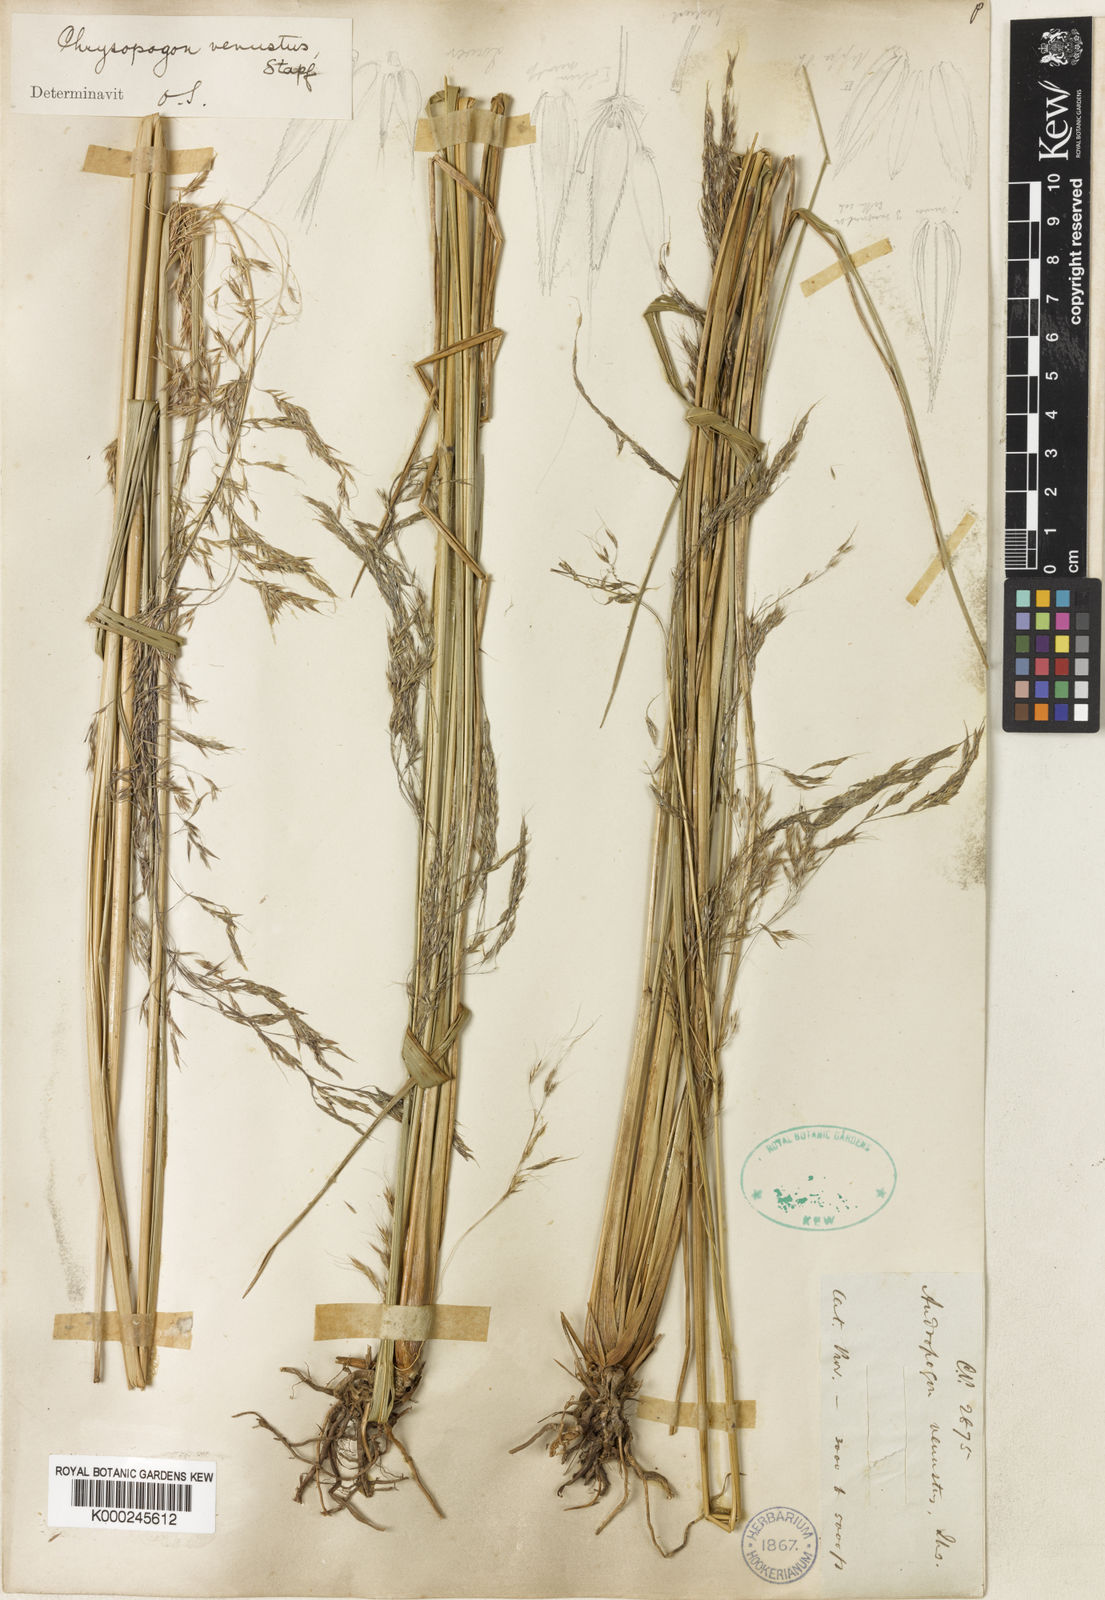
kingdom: Plantae
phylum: Tracheophyta
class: Liliopsida
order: Poales
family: Poaceae
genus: Hemisorghum
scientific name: Hemisorghum venustum
